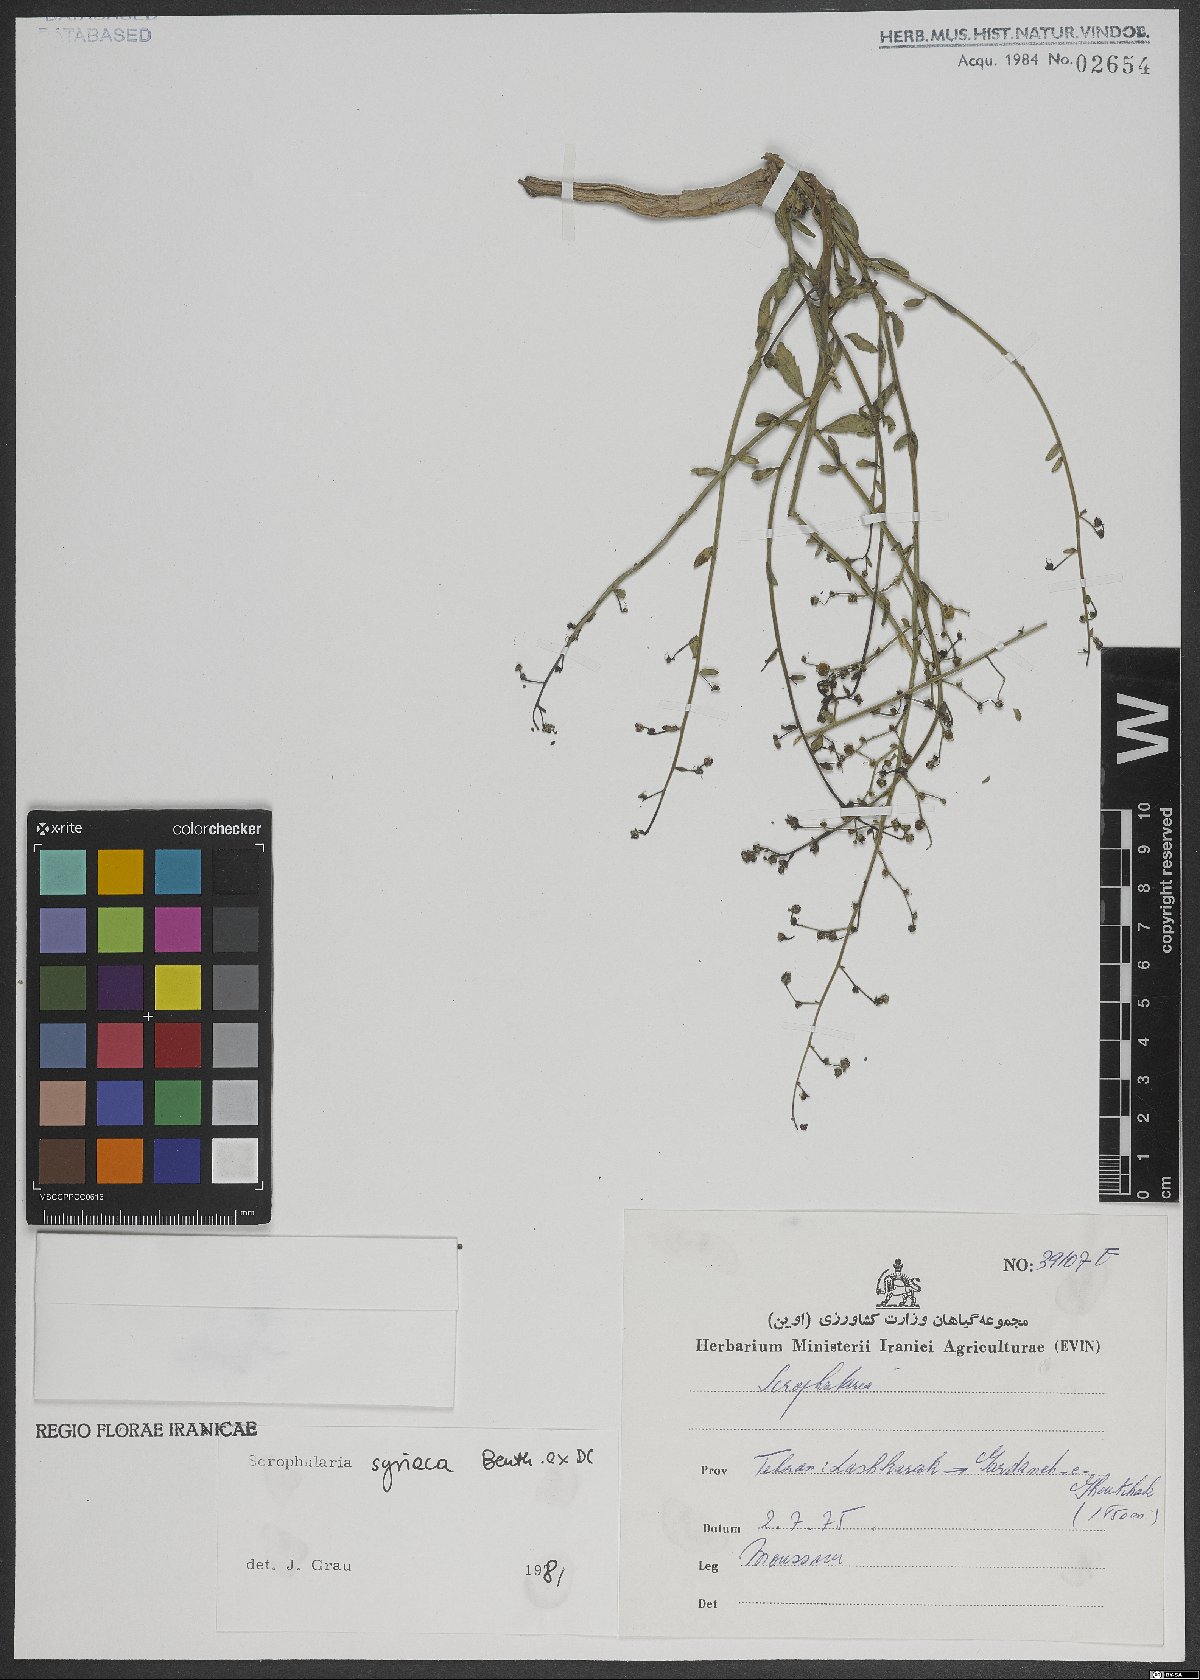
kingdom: Plantae
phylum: Tracheophyta
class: Magnoliopsida
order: Lamiales
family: Scrophulariaceae
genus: Scrophularia
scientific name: Scrophularia hypericifolia
